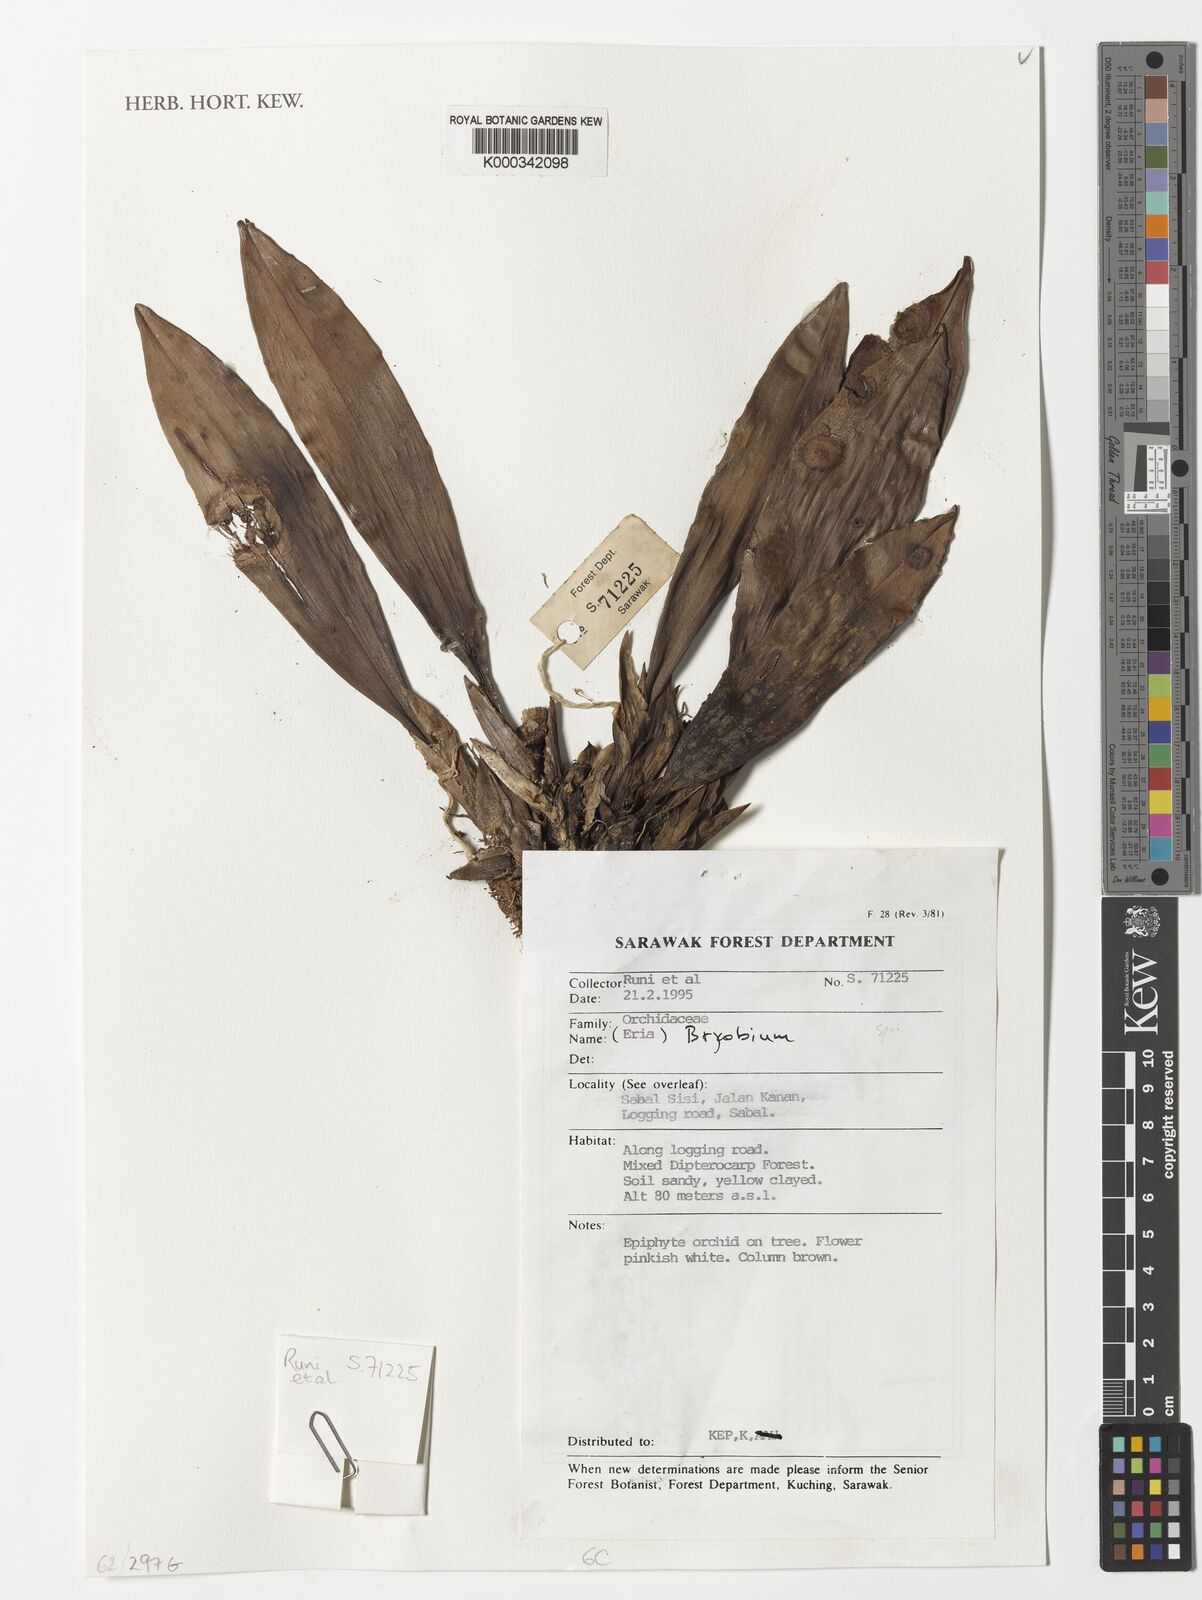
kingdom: Plantae
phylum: Tracheophyta
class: Liliopsida
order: Asparagales
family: Orchidaceae
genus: Bryobium
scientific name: Bryobium
